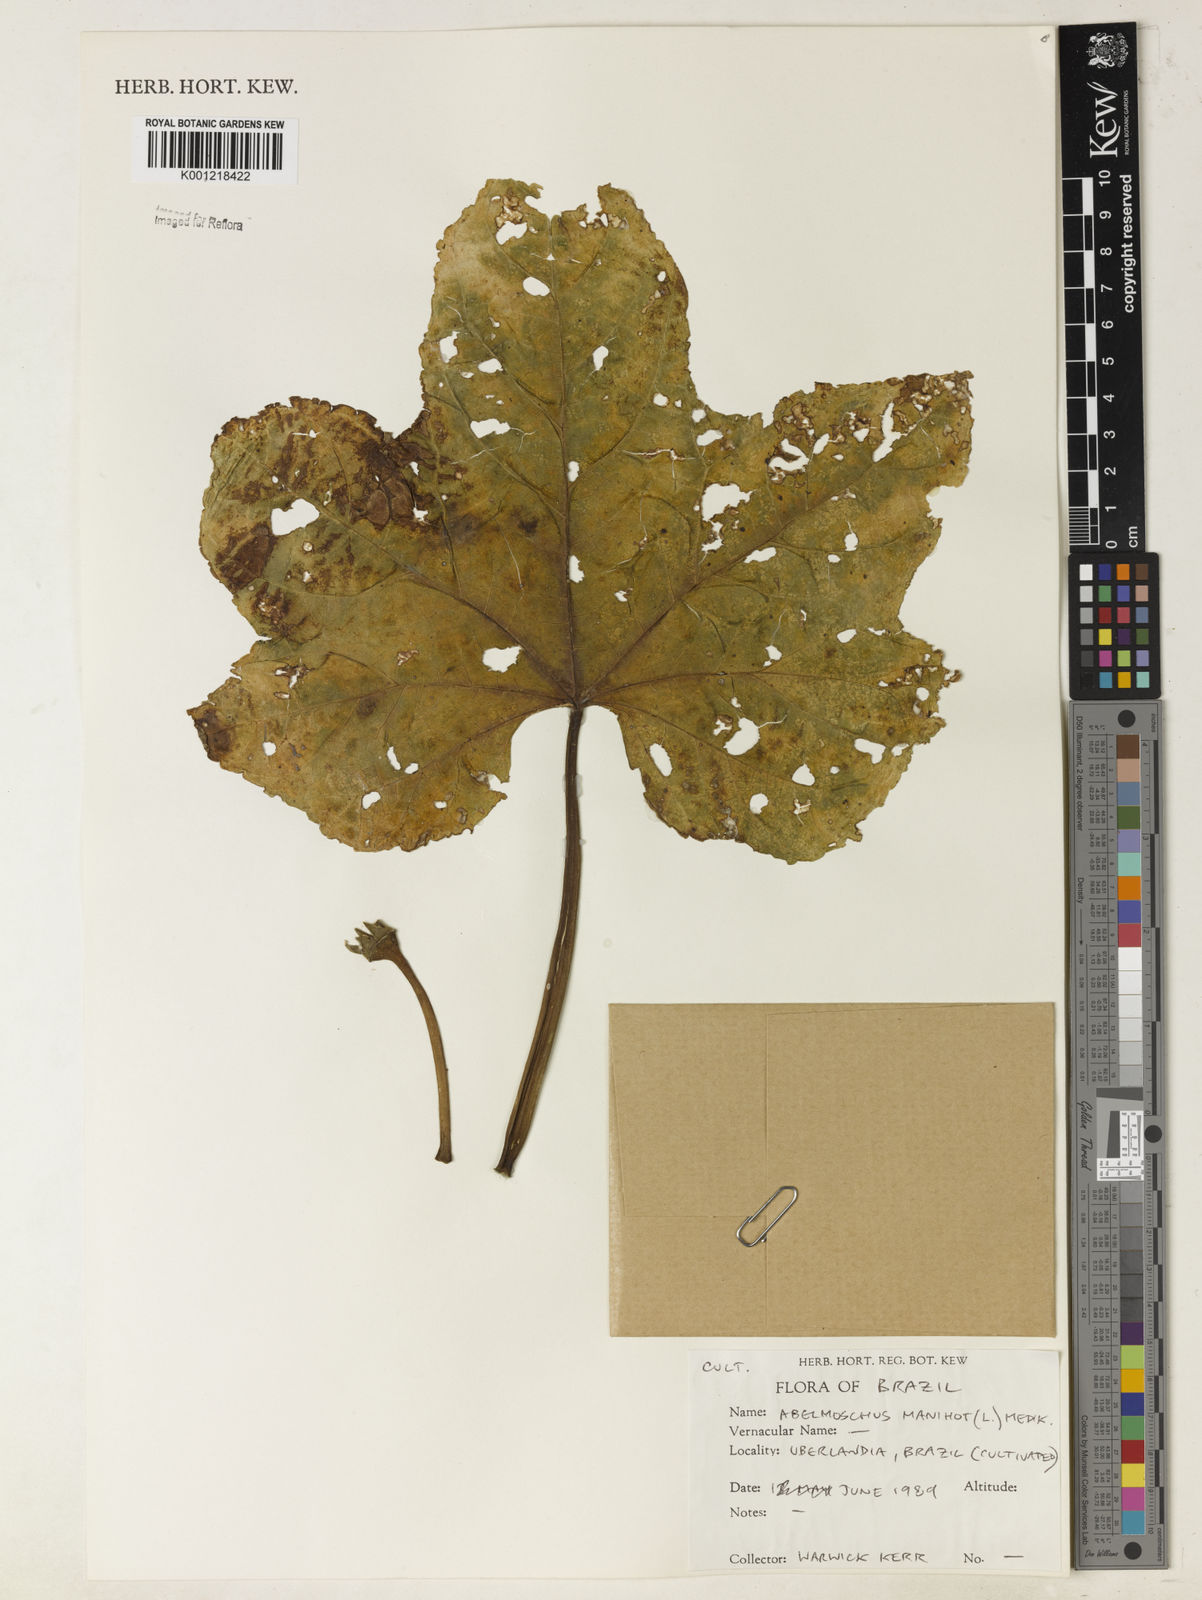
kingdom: Plantae
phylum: Tracheophyta
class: Magnoliopsida
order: Malvales
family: Malvaceae
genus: Abelmoschus
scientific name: Abelmoschus manihot
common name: Sunset muskmallow
